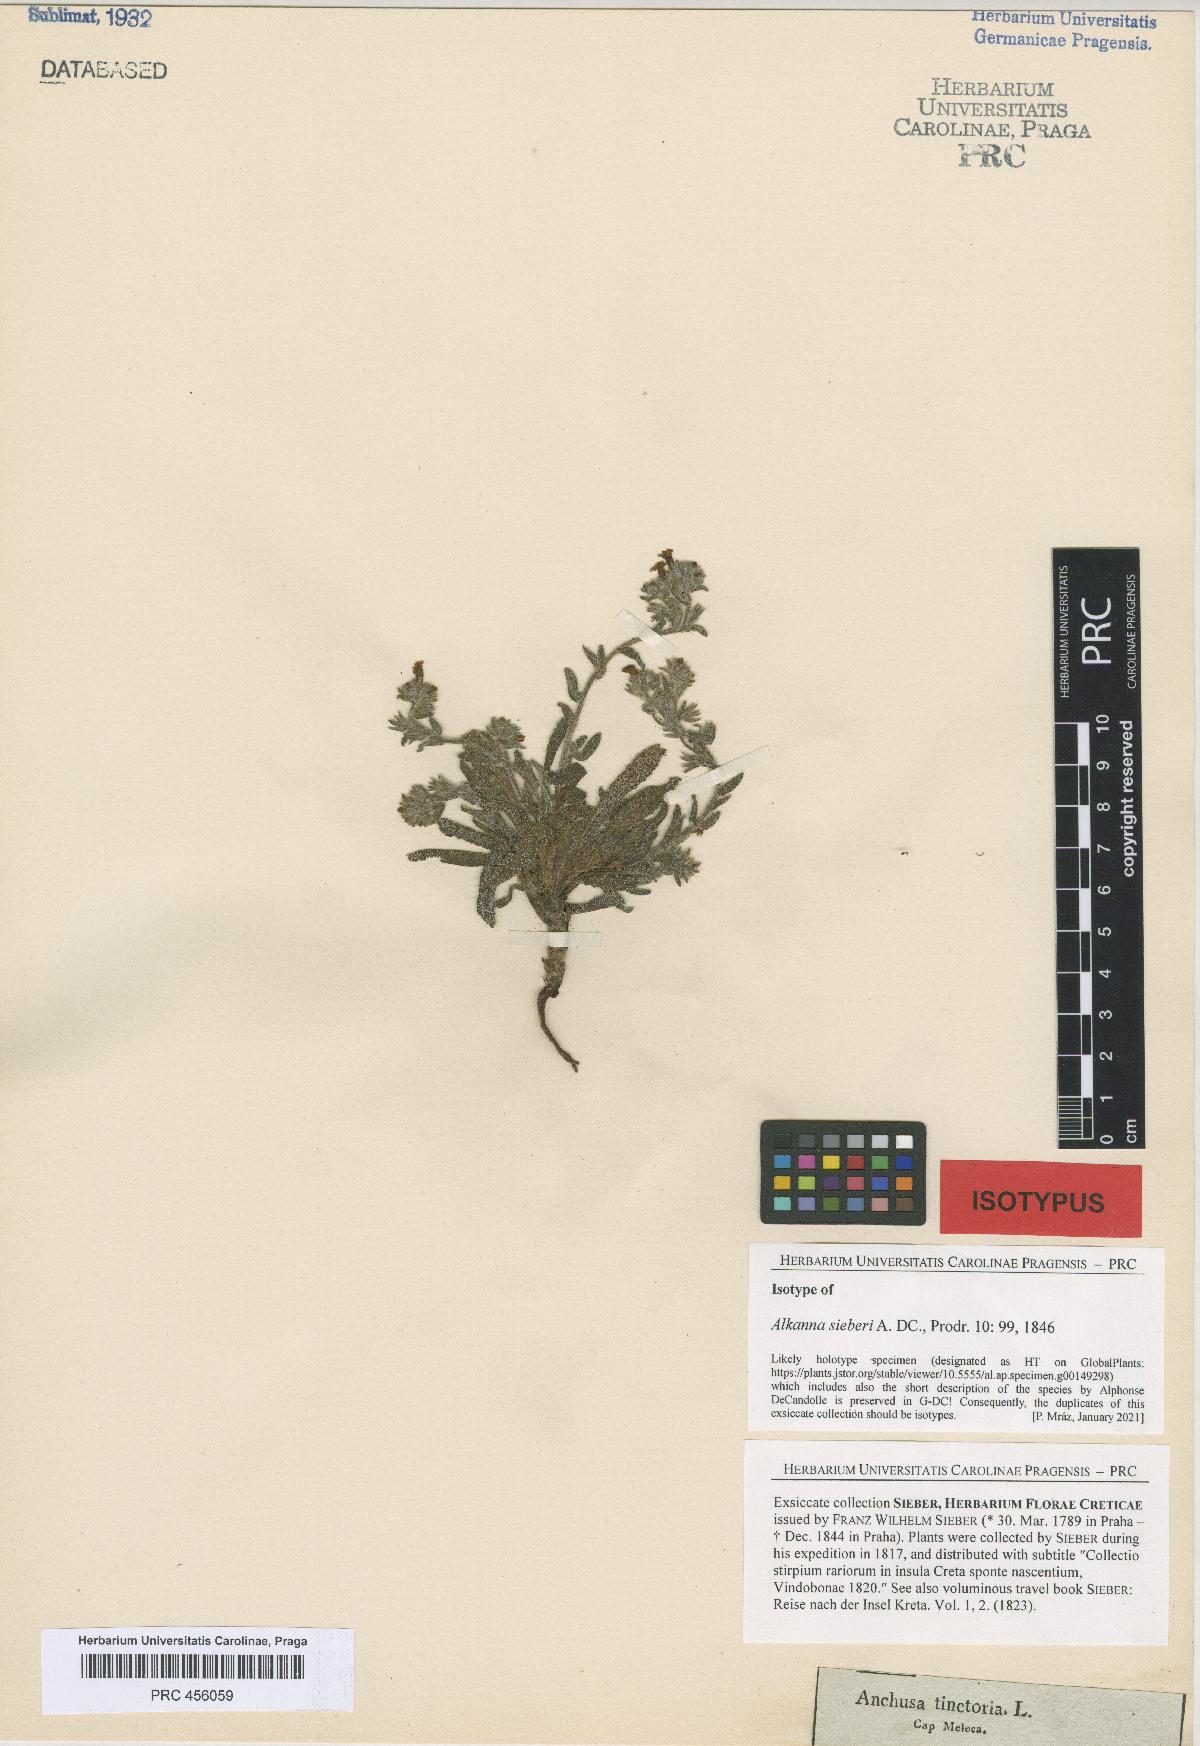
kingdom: Plantae
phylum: Tracheophyta
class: Magnoliopsida
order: Boraginales
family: Boraginaceae
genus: Alkanna
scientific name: Alkanna sieberi
